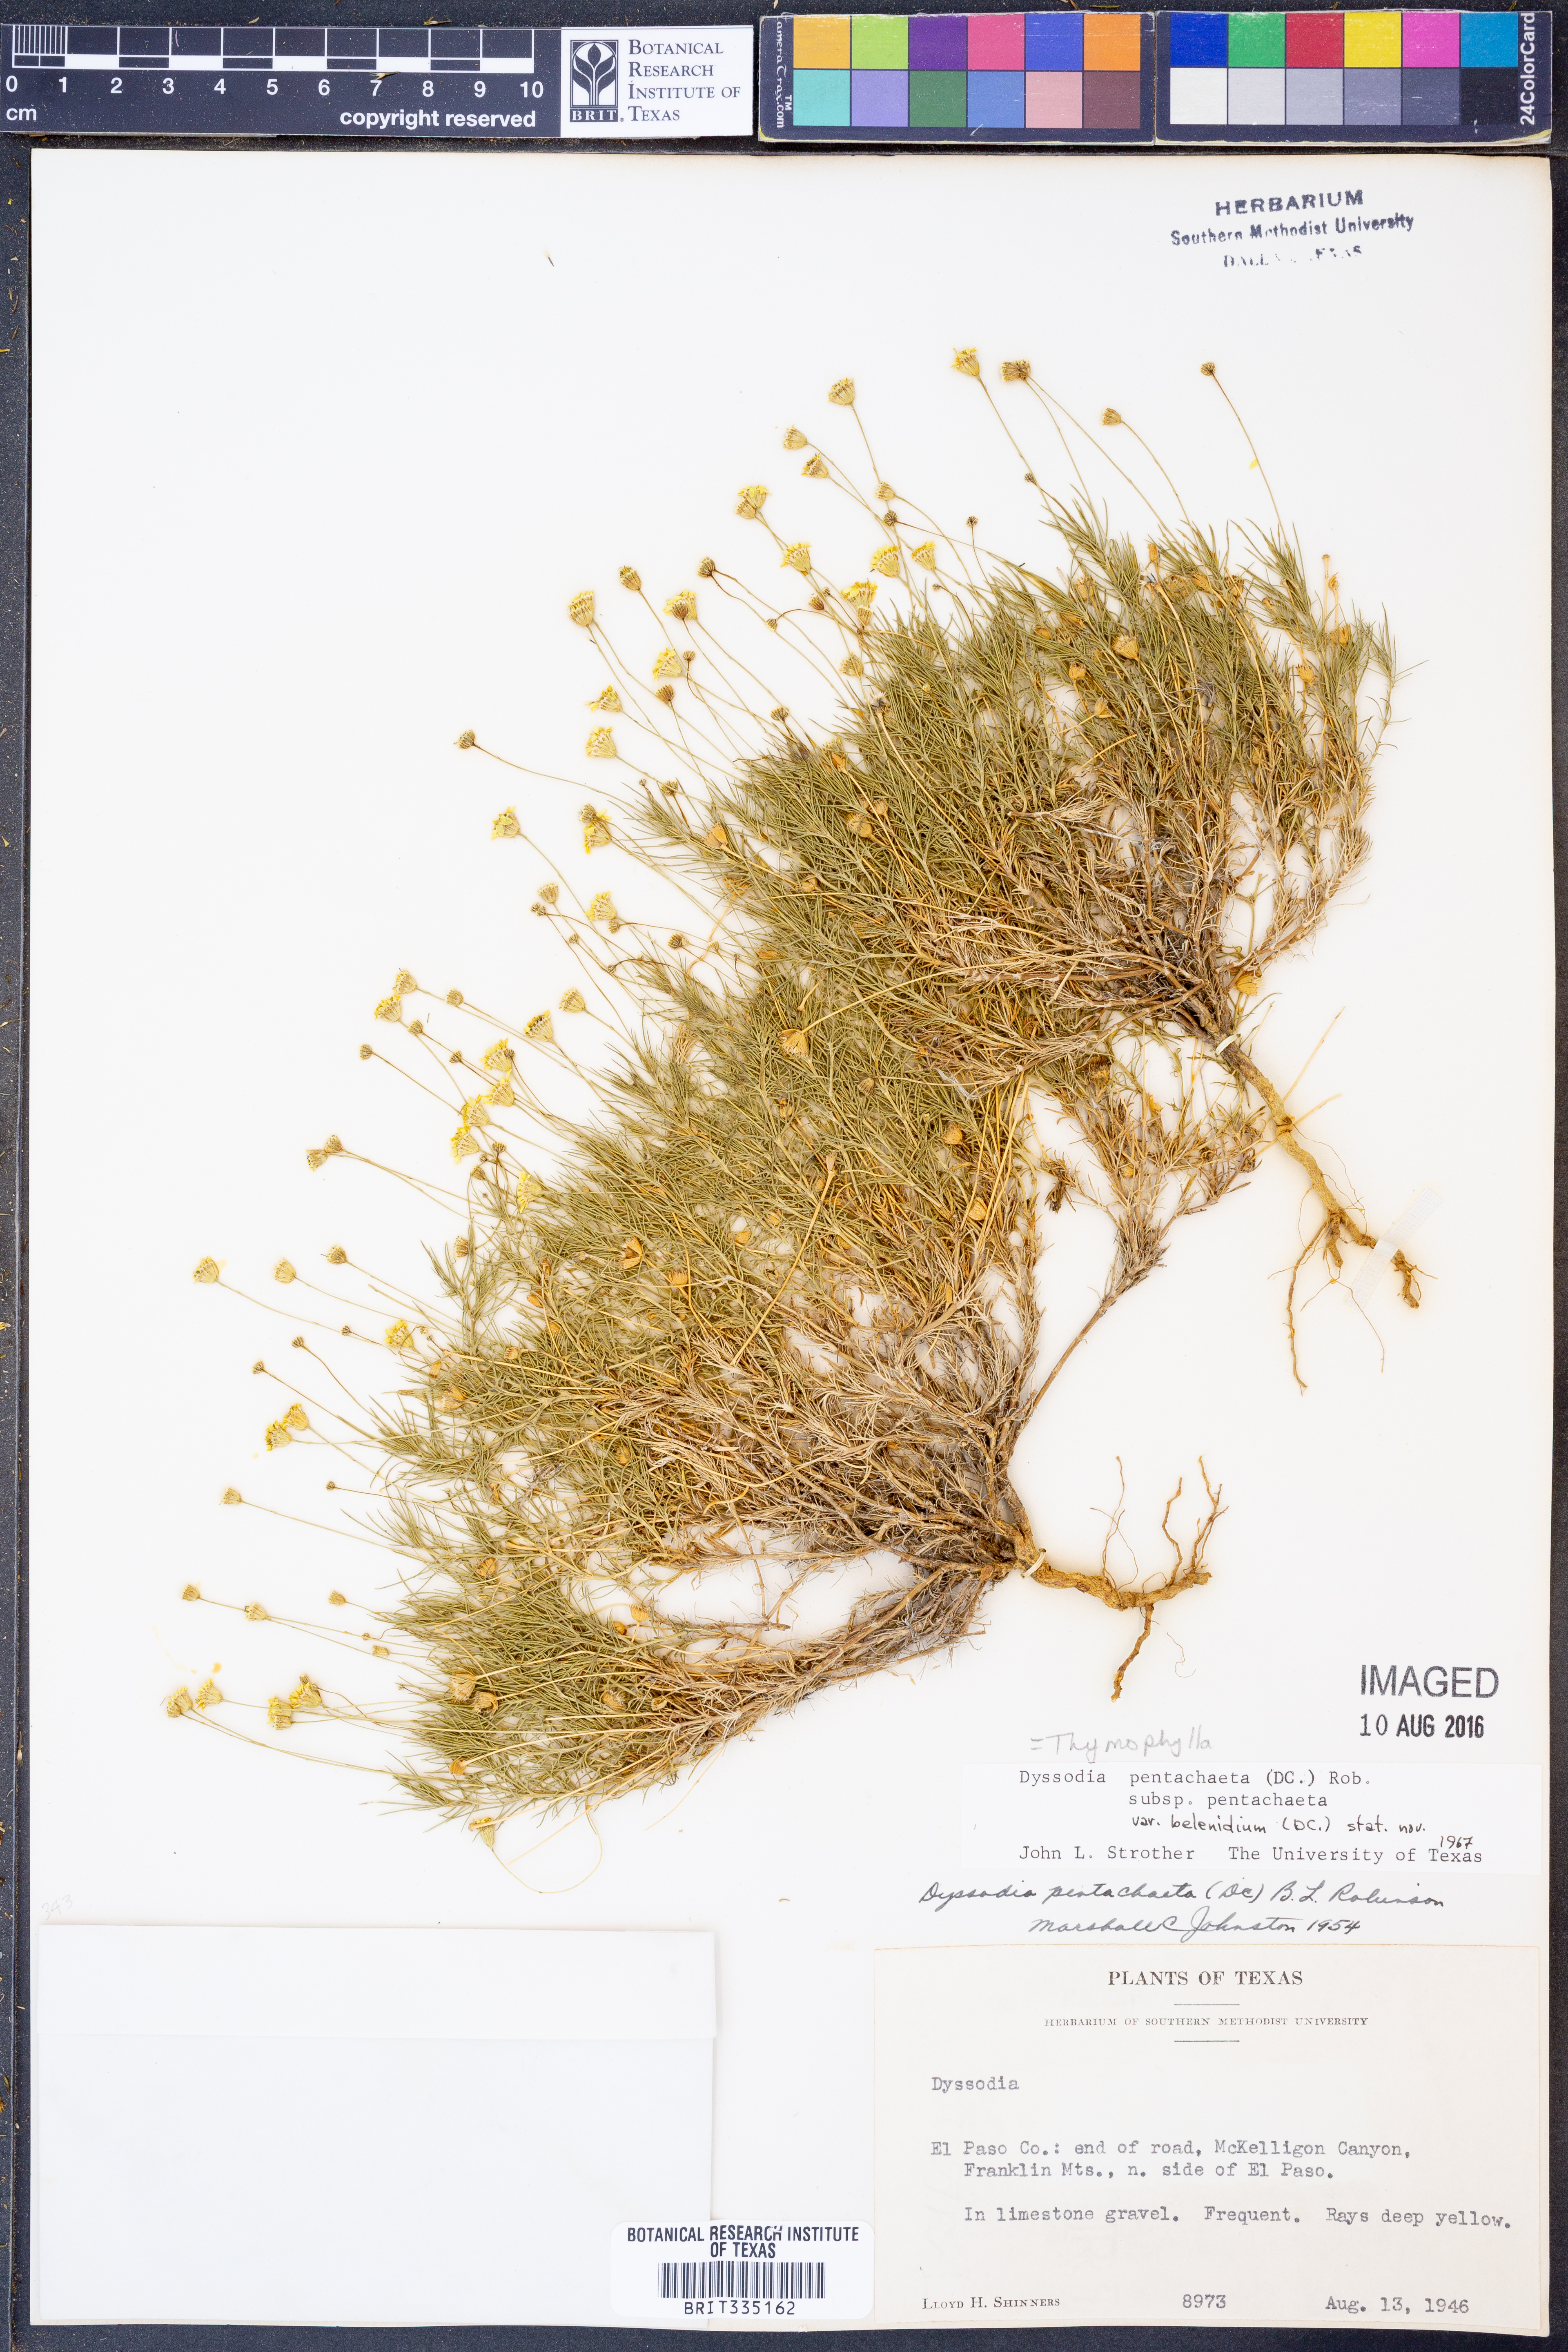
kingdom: Plantae
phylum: Tracheophyta
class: Magnoliopsida
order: Asterales
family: Asteraceae
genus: Thymophylla
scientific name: Thymophylla pentachaeta
